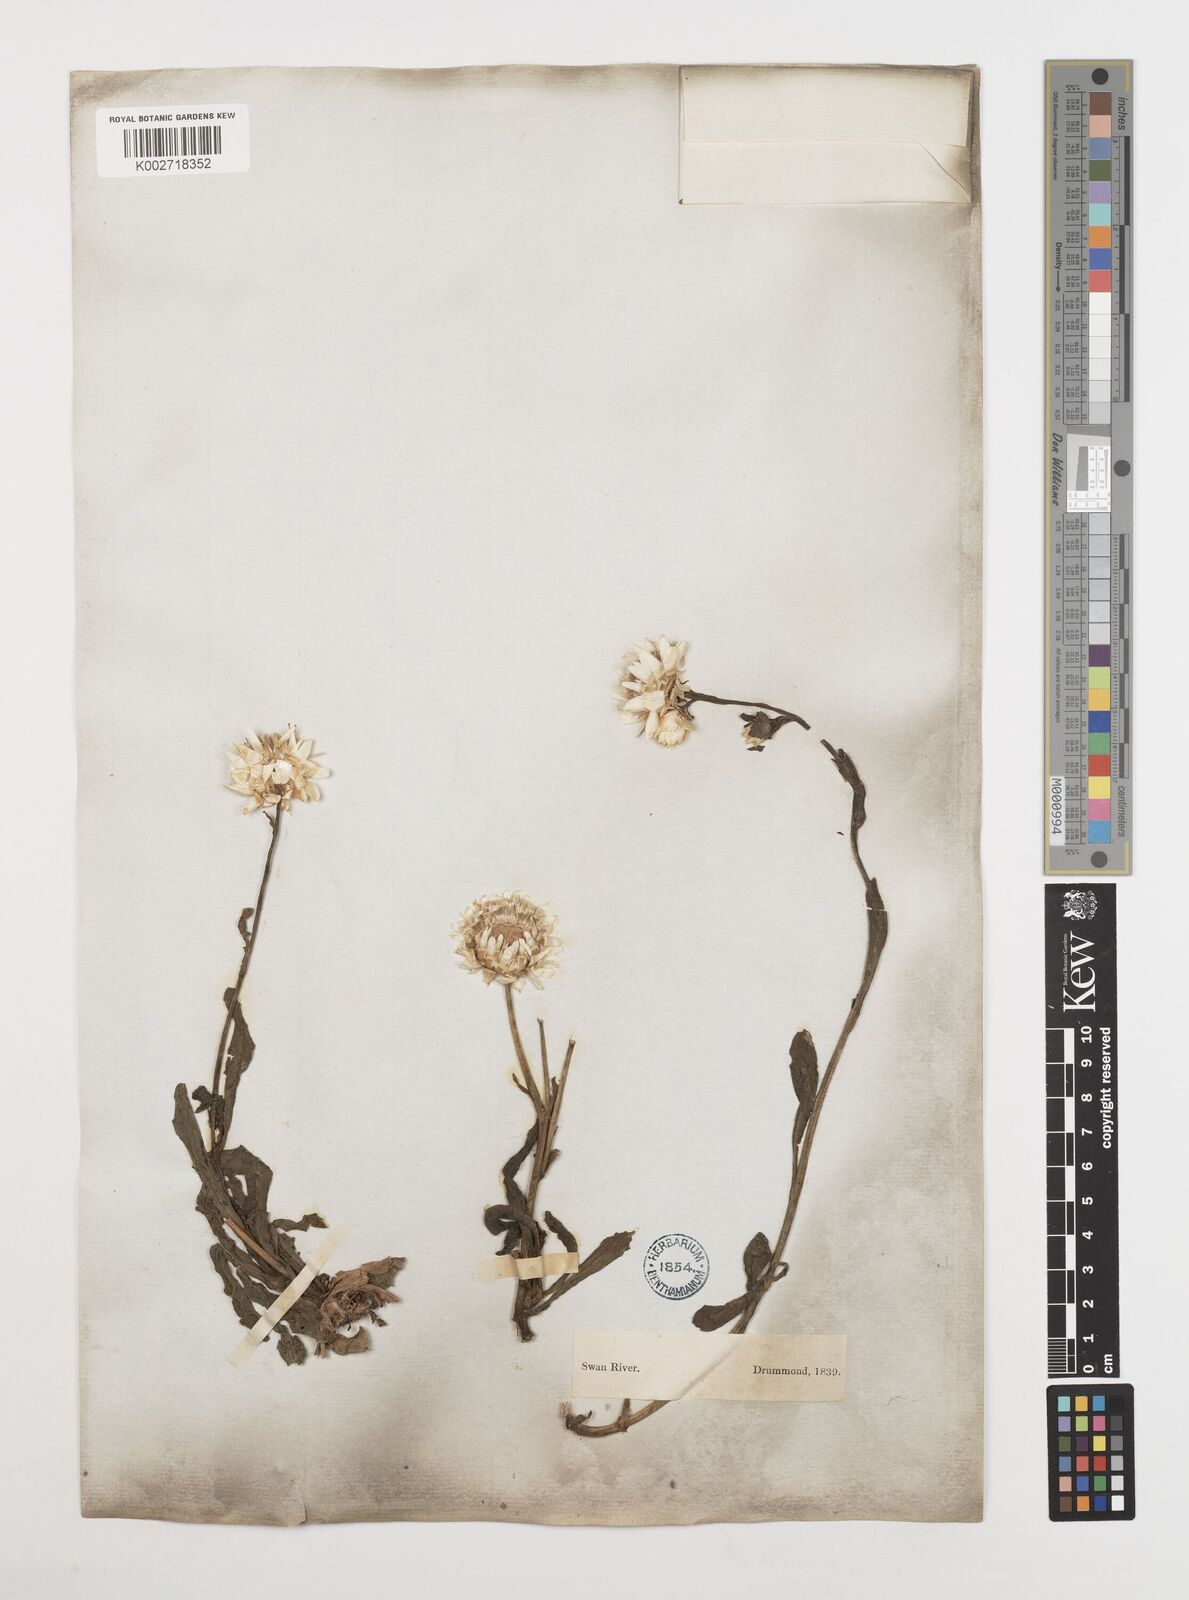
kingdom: Plantae
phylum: Tracheophyta
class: Magnoliopsida
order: Asterales
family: Asteraceae
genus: Xerochrysum
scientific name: Xerochrysum bracteatum
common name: Bracted strawflower
